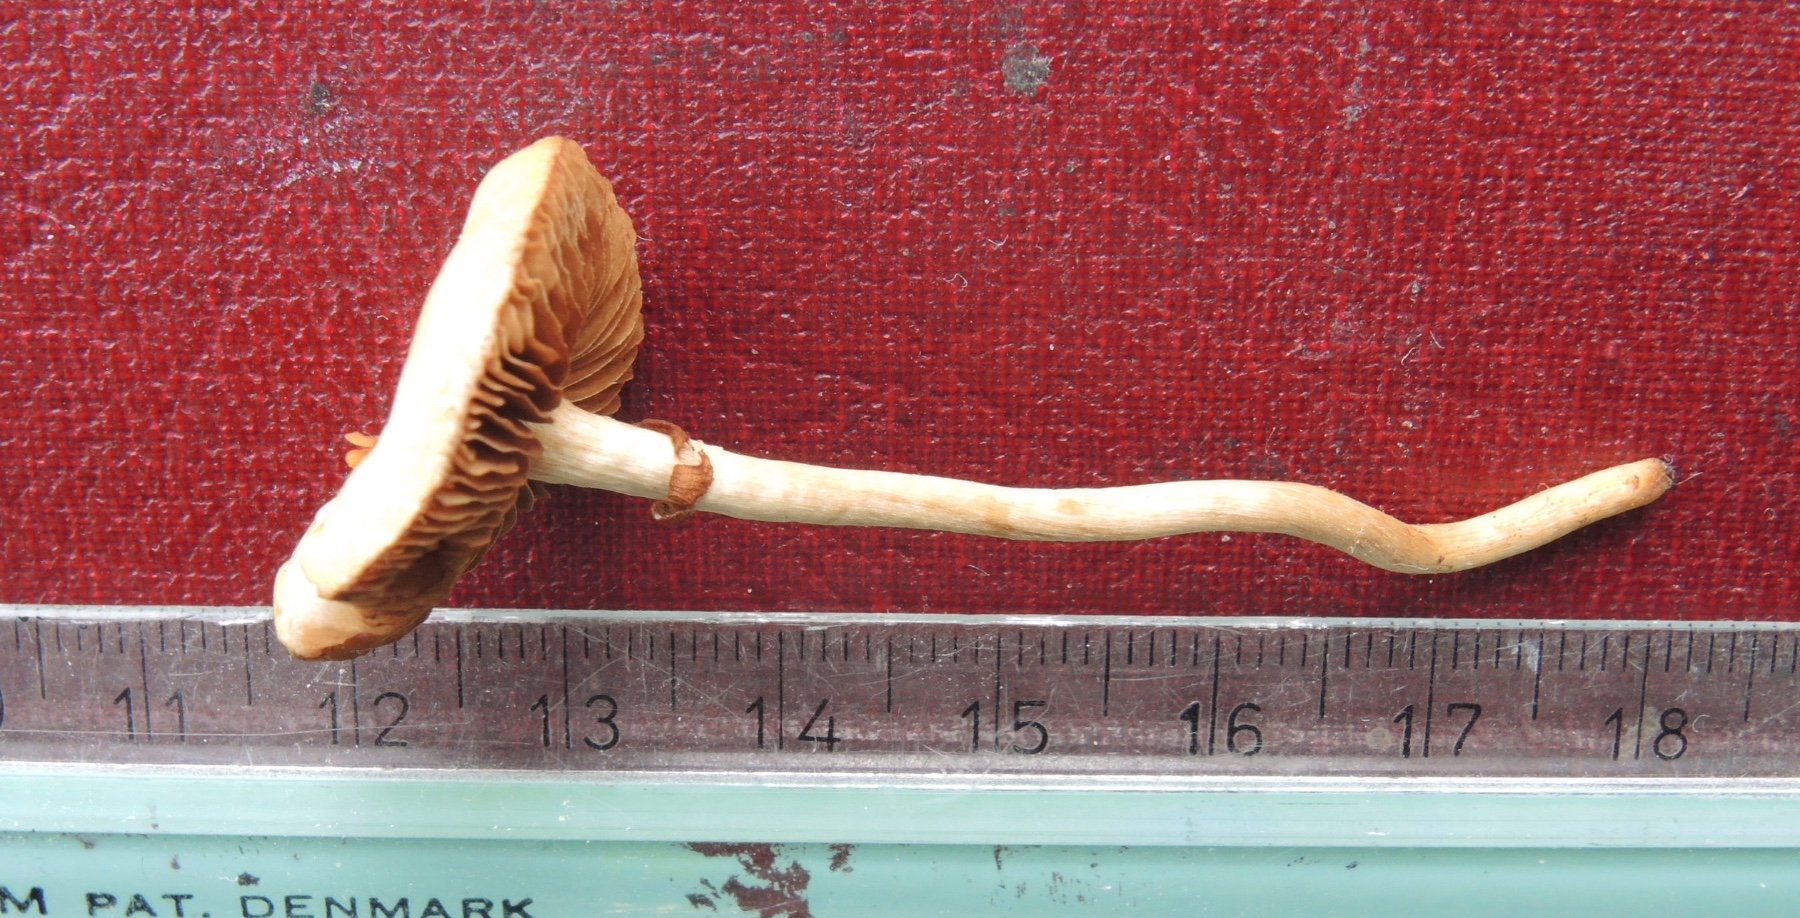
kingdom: Fungi
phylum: Basidiomycota
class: Agaricomycetes
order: Agaricales
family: Strophariaceae
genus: Agrocybe
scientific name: Agrocybe elatella
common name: mose-agerhat
